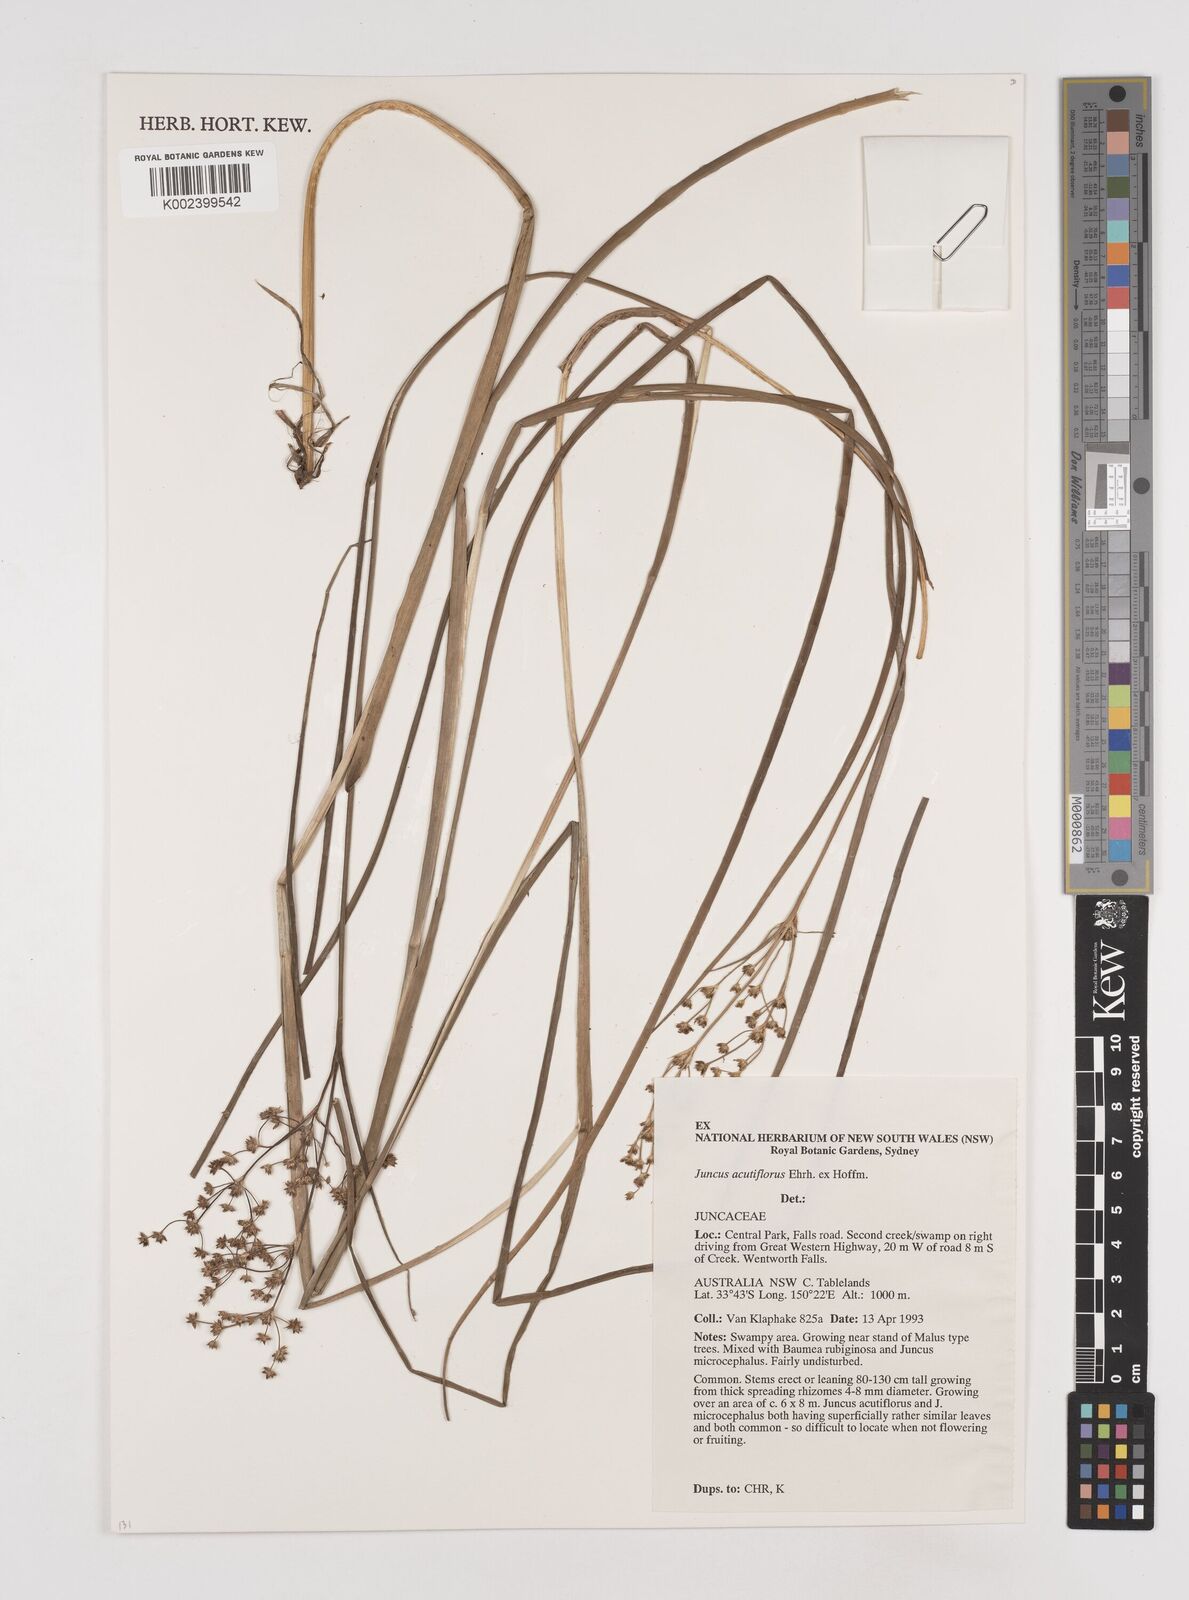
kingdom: Plantae
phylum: Tracheophyta
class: Liliopsida
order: Poales
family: Juncaceae
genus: Juncus
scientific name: Juncus acutiflorus
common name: Sharp-flowered rush
